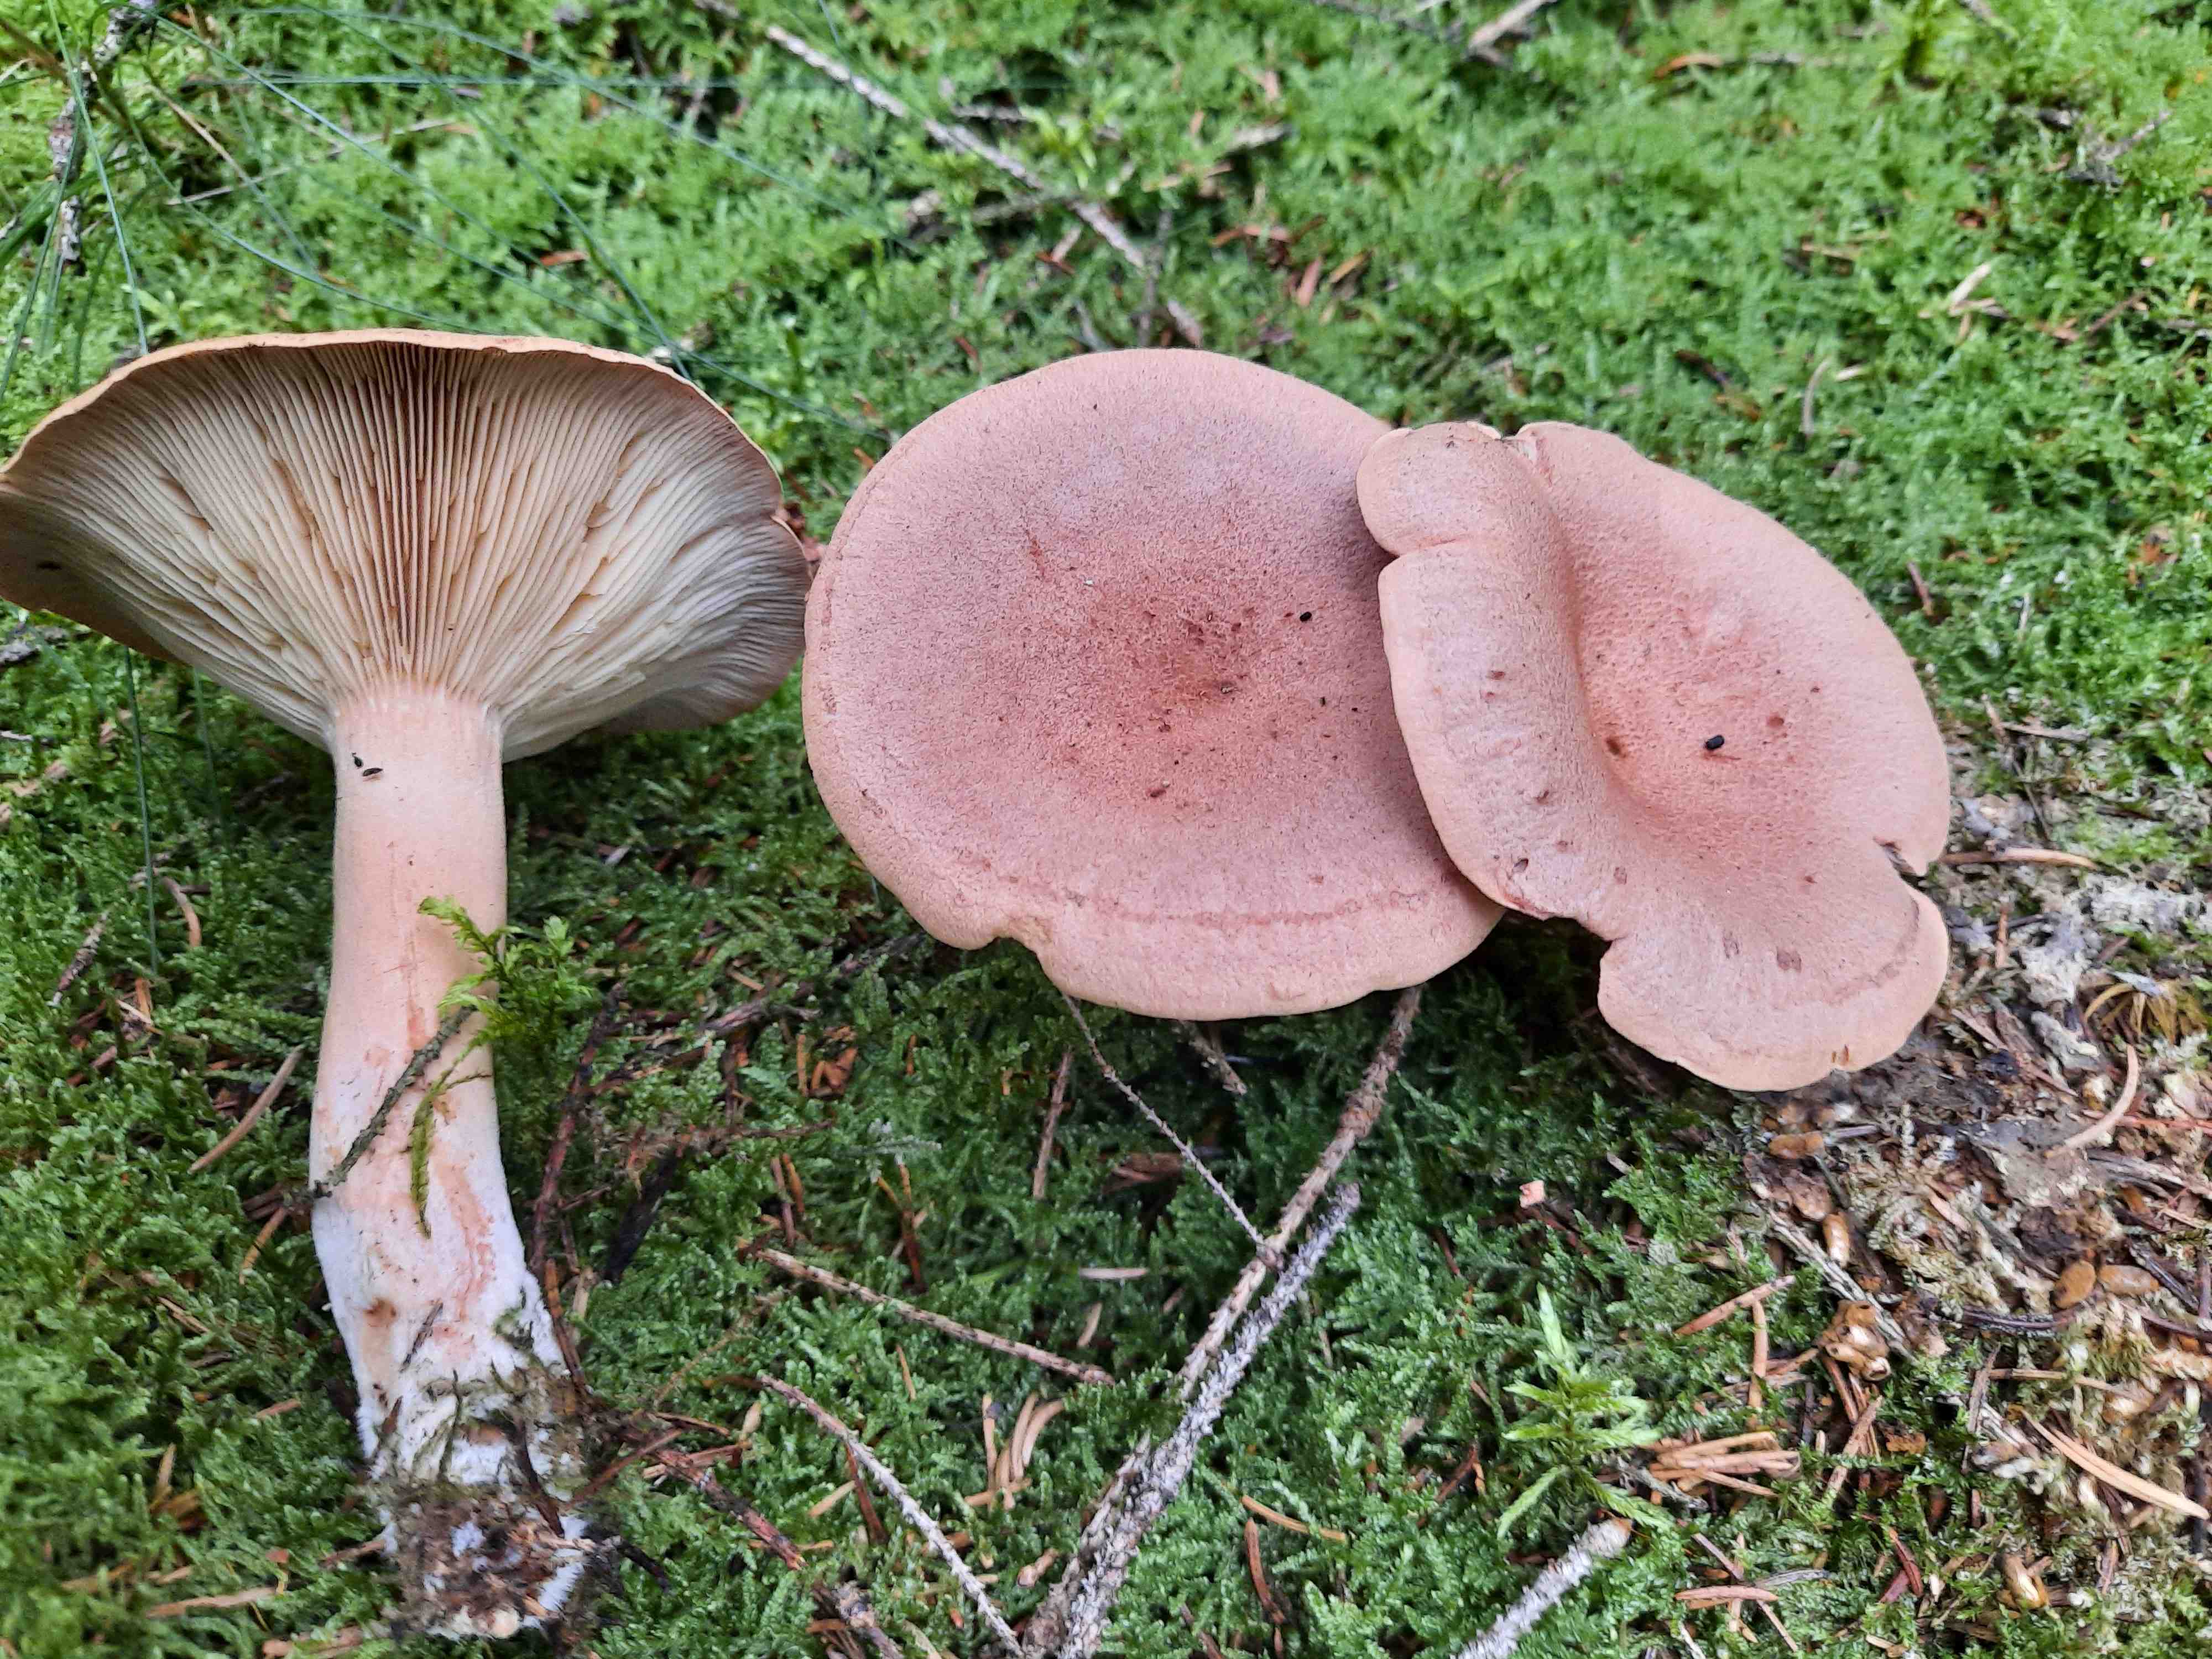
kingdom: Fungi
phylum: Basidiomycota
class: Agaricomycetes
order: Russulales
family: Russulaceae
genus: Lactarius
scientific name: Lactarius helvus
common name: mose-mælkehat
